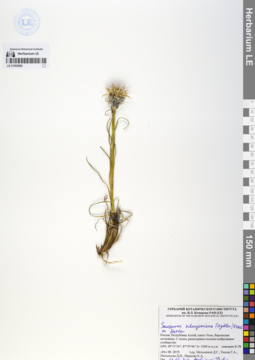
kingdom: Plantae
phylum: Tracheophyta
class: Magnoliopsida
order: Asterales
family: Asteraceae
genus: Saussurea
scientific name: Saussurea schanginiana
